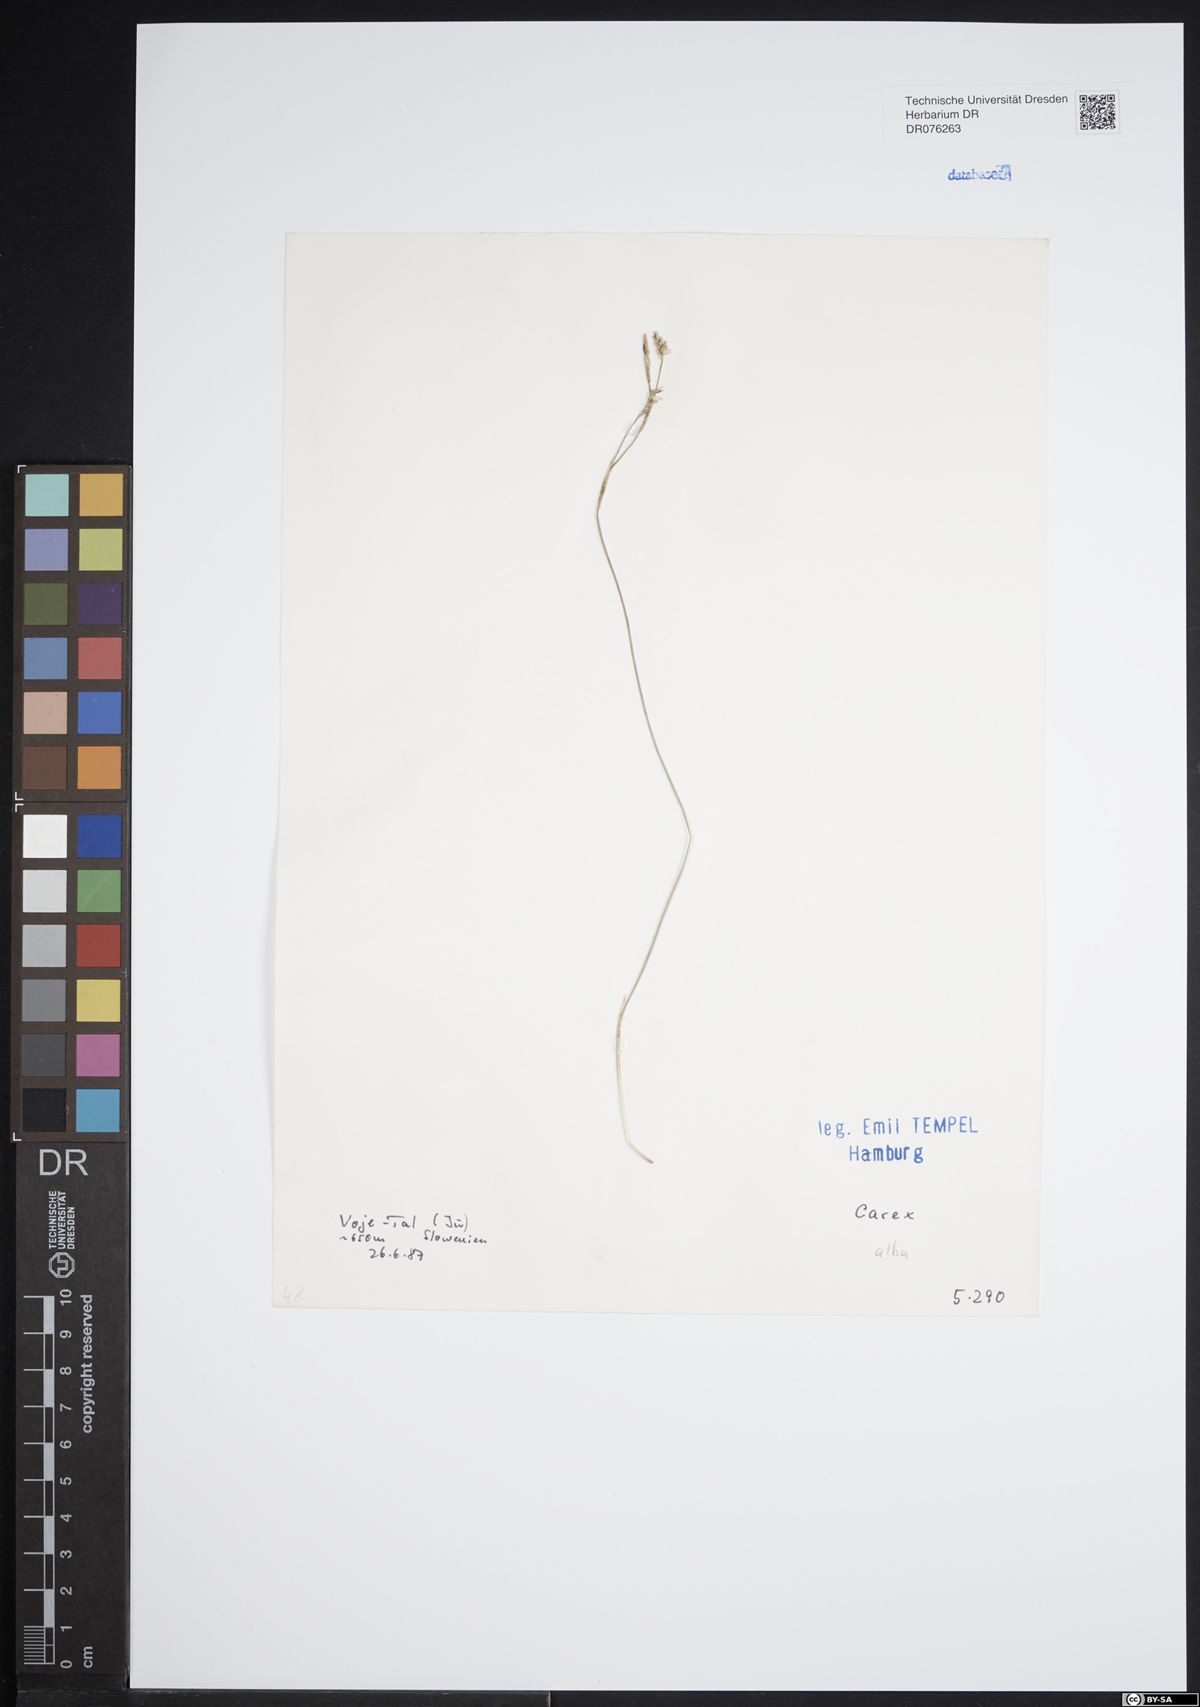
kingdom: Plantae
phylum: Tracheophyta
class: Liliopsida
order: Poales
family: Cyperaceae
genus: Carex
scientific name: Carex alba
